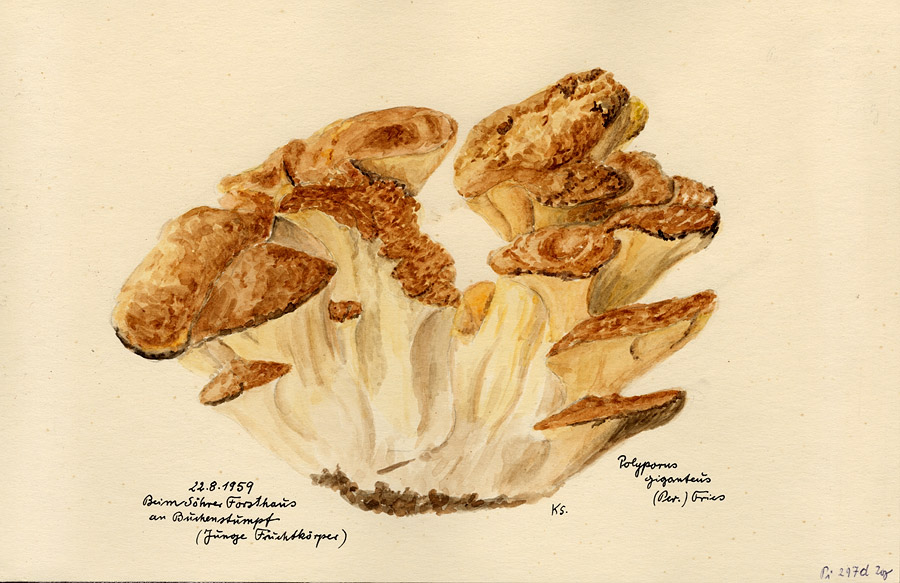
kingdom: Plantae
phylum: Tracheophyta
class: Magnoliopsida
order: Fagales
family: Fagaceae
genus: Fagus
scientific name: Fagus
